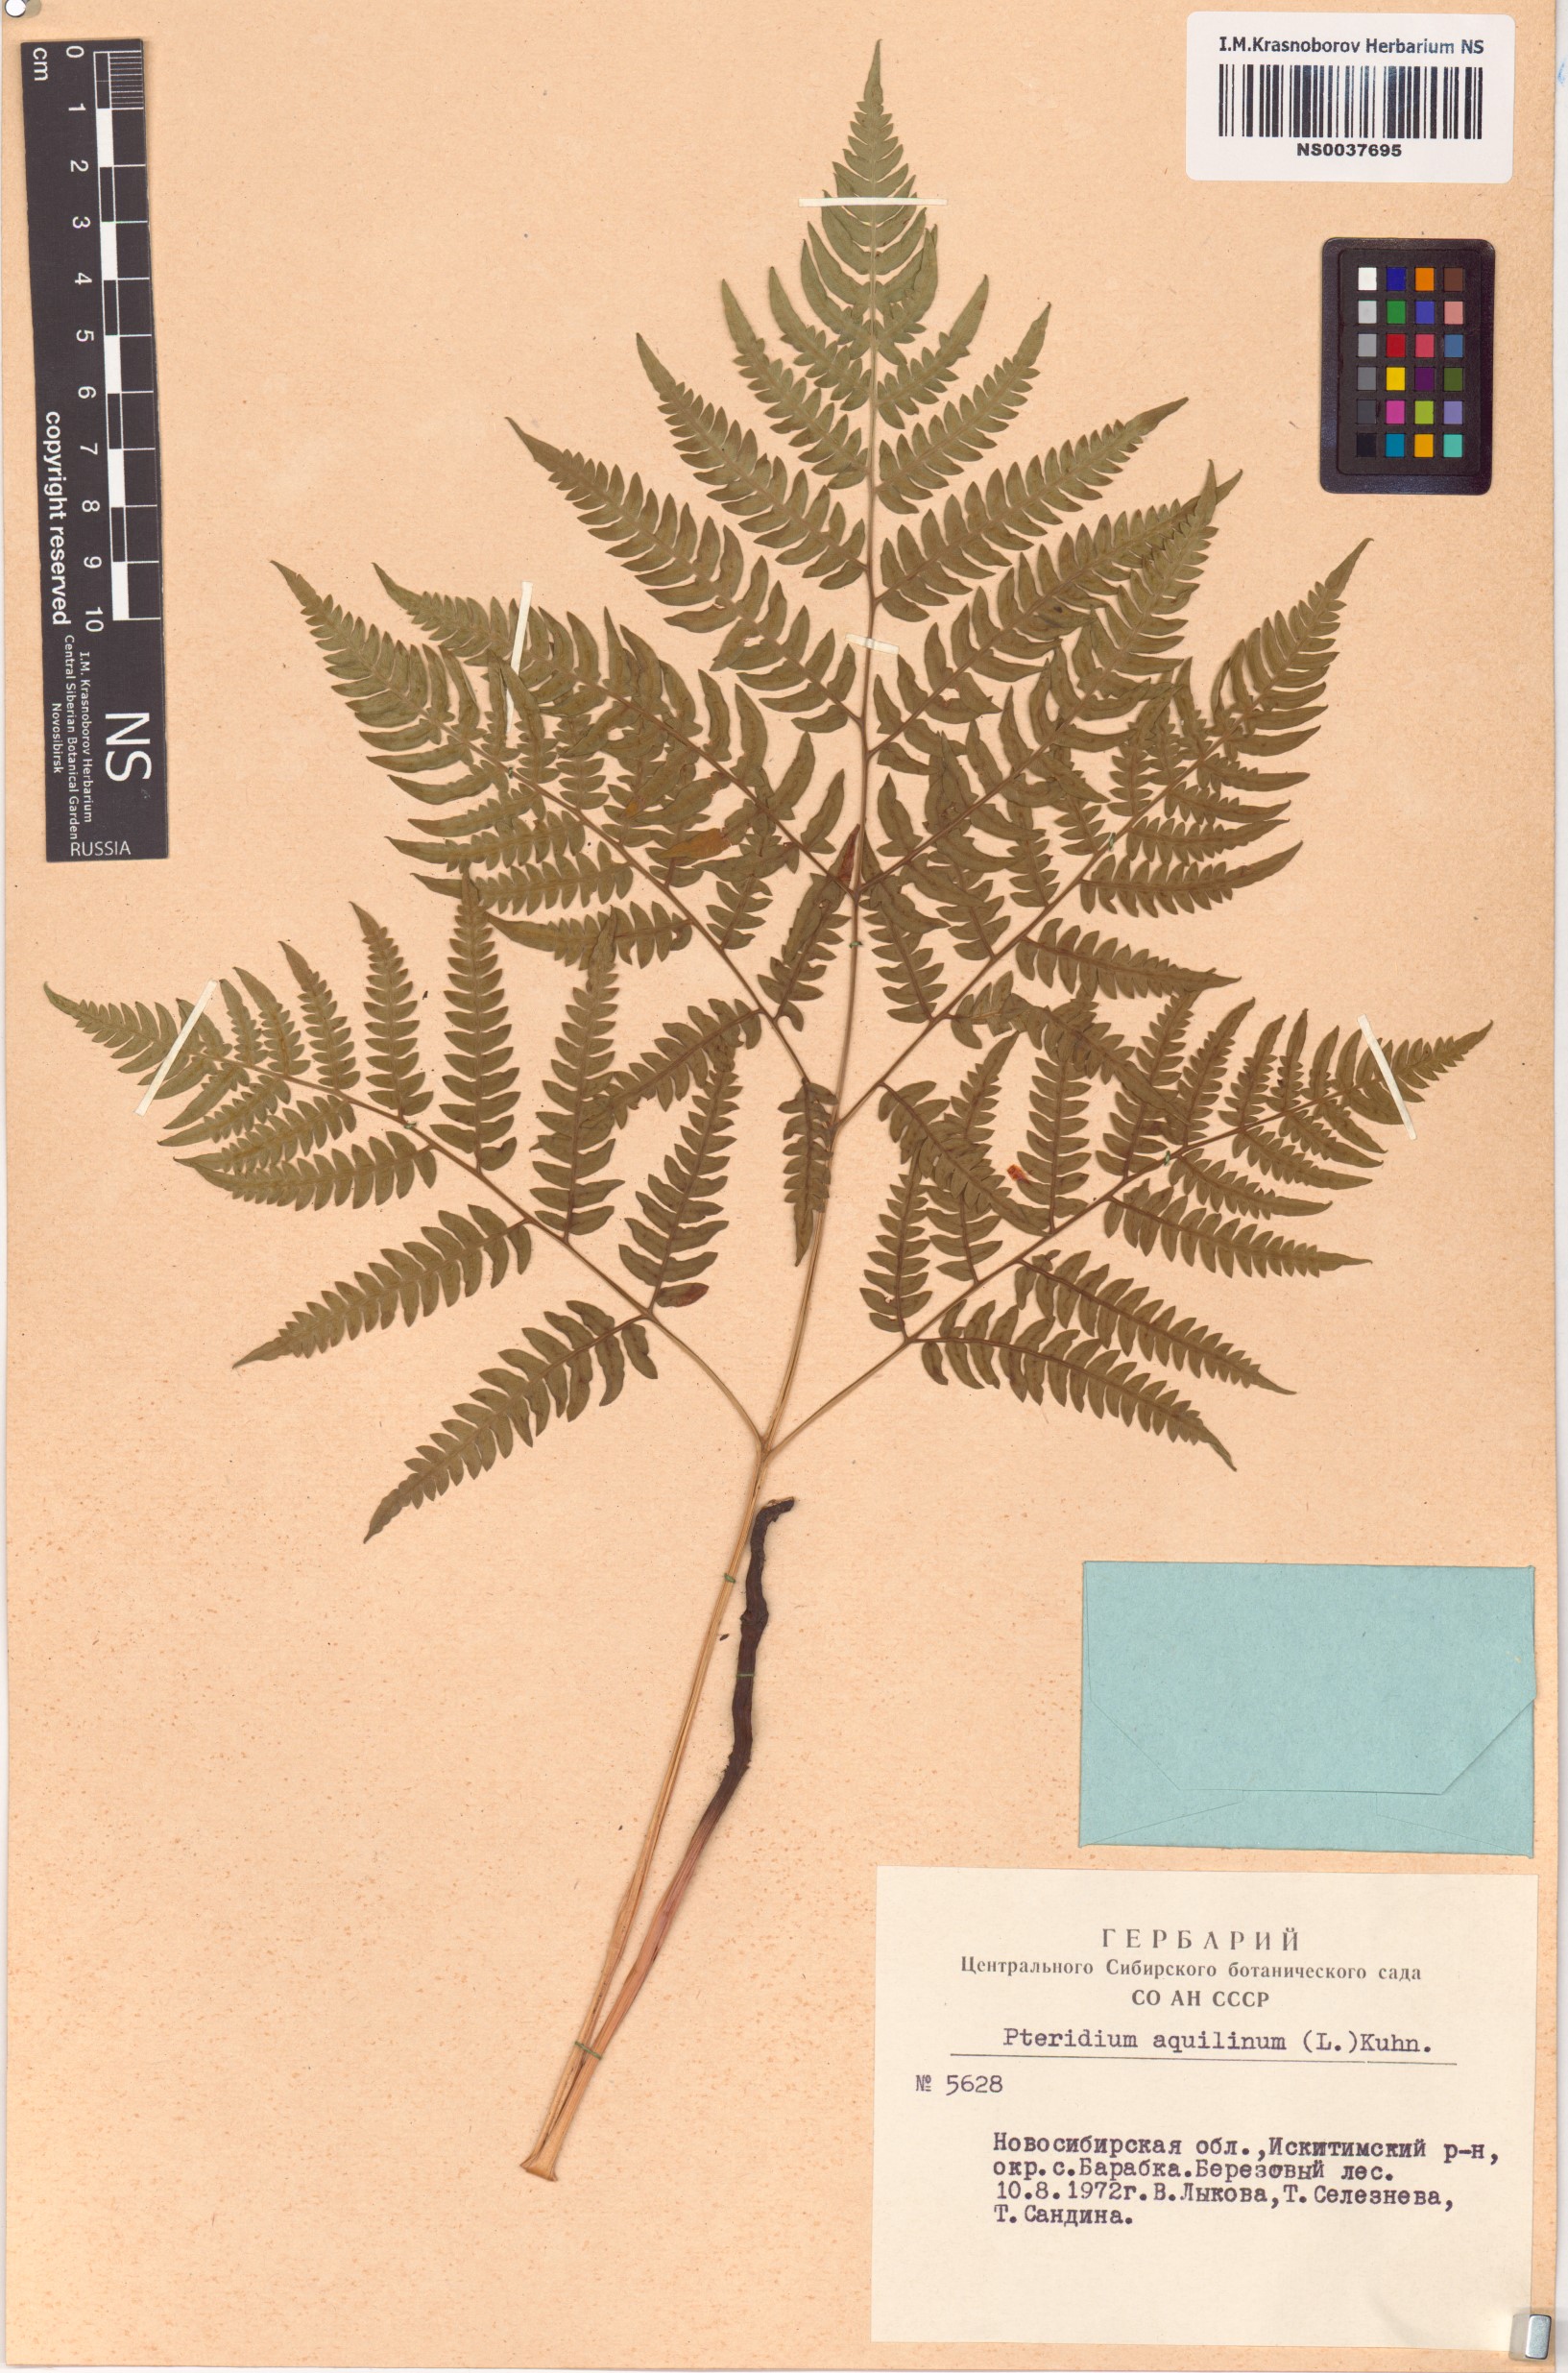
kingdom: Plantae
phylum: Tracheophyta
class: Polypodiopsida
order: Polypodiales
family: Dennstaedtiaceae
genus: Pteridium
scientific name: Pteridium aquilinum
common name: Bracken
